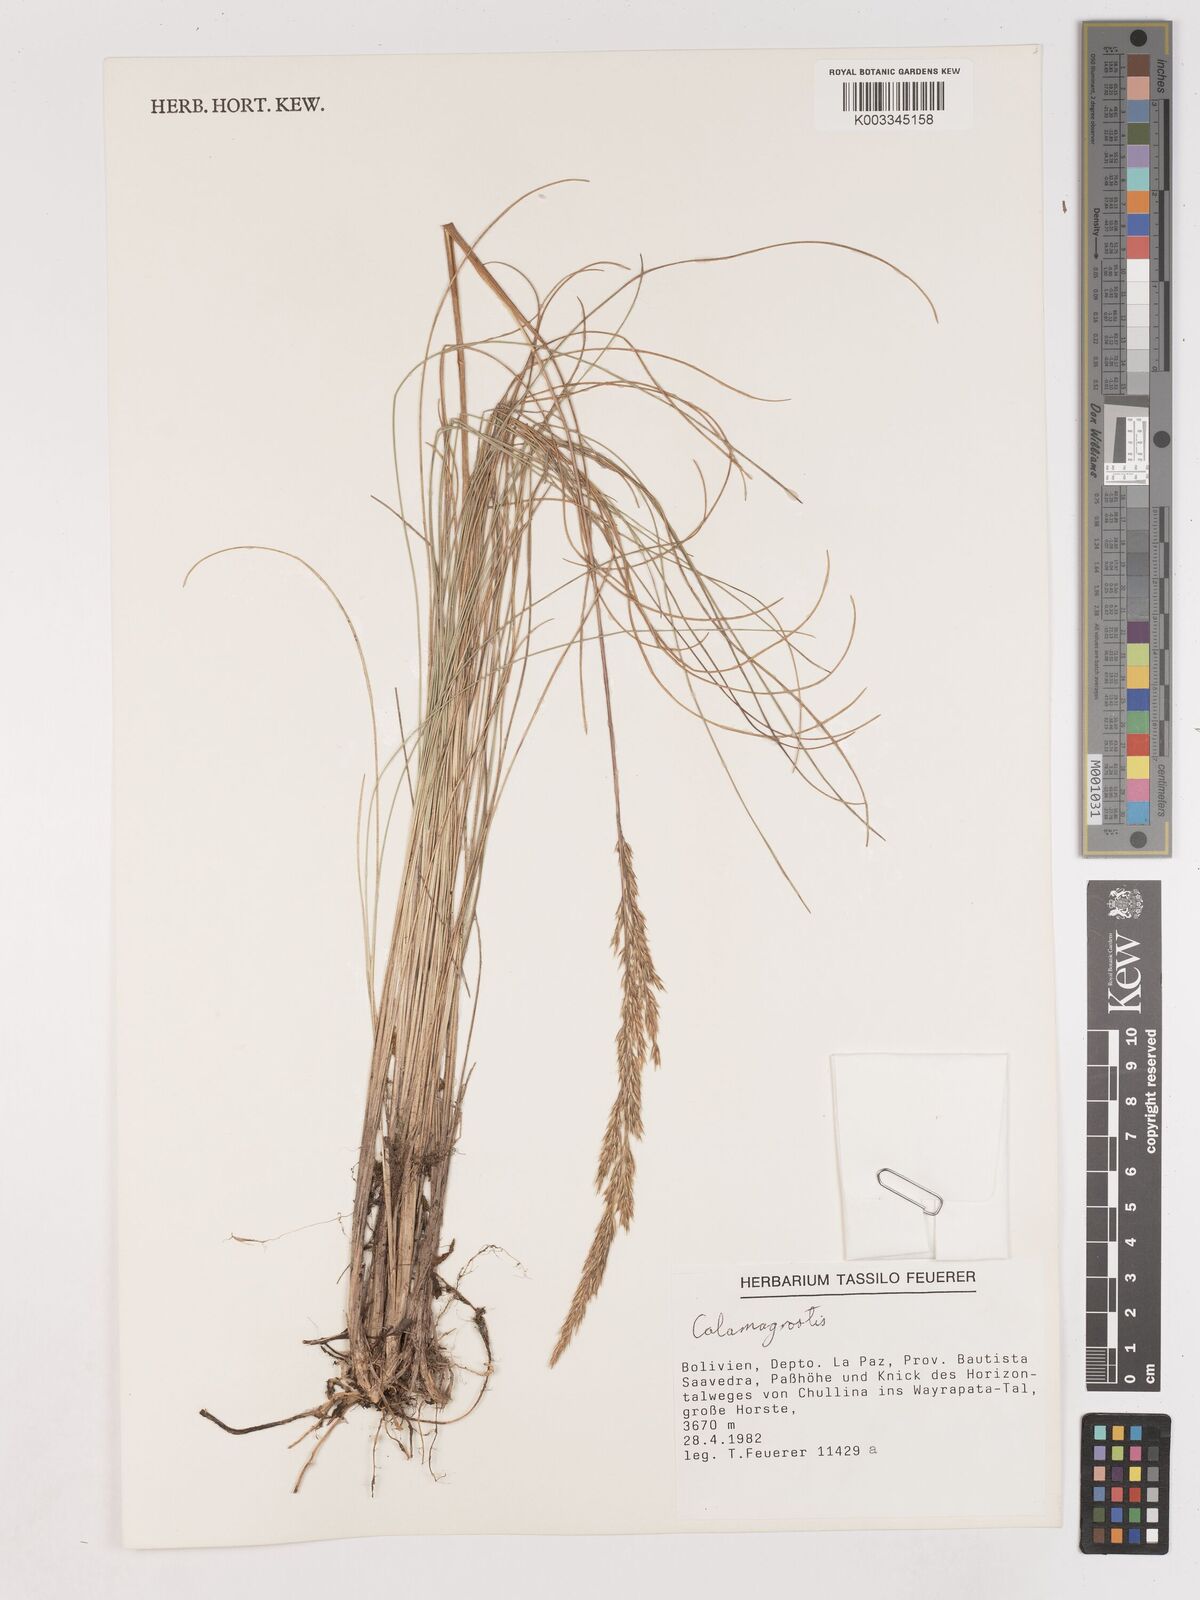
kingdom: Plantae
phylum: Tracheophyta
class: Liliopsida
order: Poales
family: Poaceae
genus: Calamagrostis
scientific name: Calamagrostis
